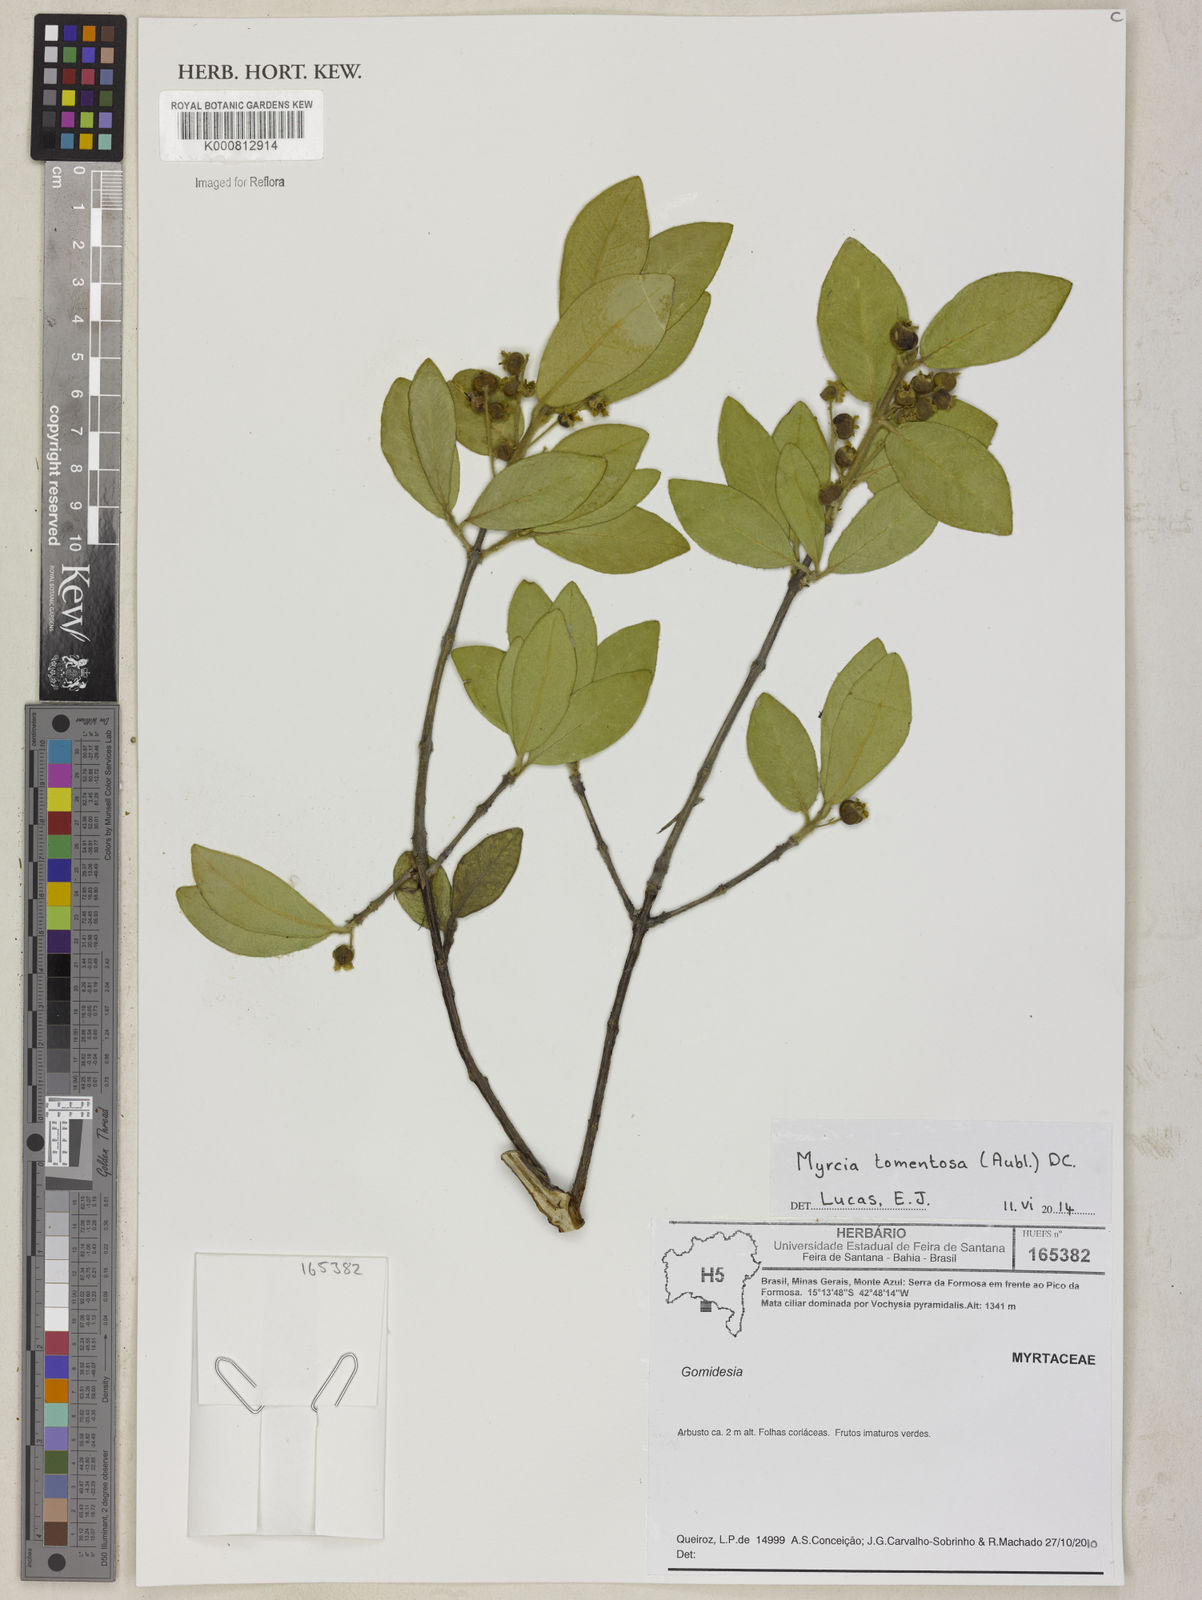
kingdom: Plantae
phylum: Tracheophyta
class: Magnoliopsida
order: Myrtales
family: Myrtaceae
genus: Myrcia
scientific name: Myrcia tomentosa
